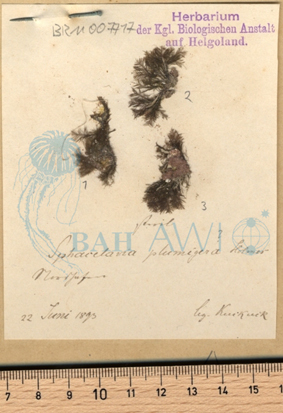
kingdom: Chromista
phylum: Ochrophyta
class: Phaeophyceae
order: Sphacelariales
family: Sphacelariaceae
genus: Battersia
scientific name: Battersia plumigera
